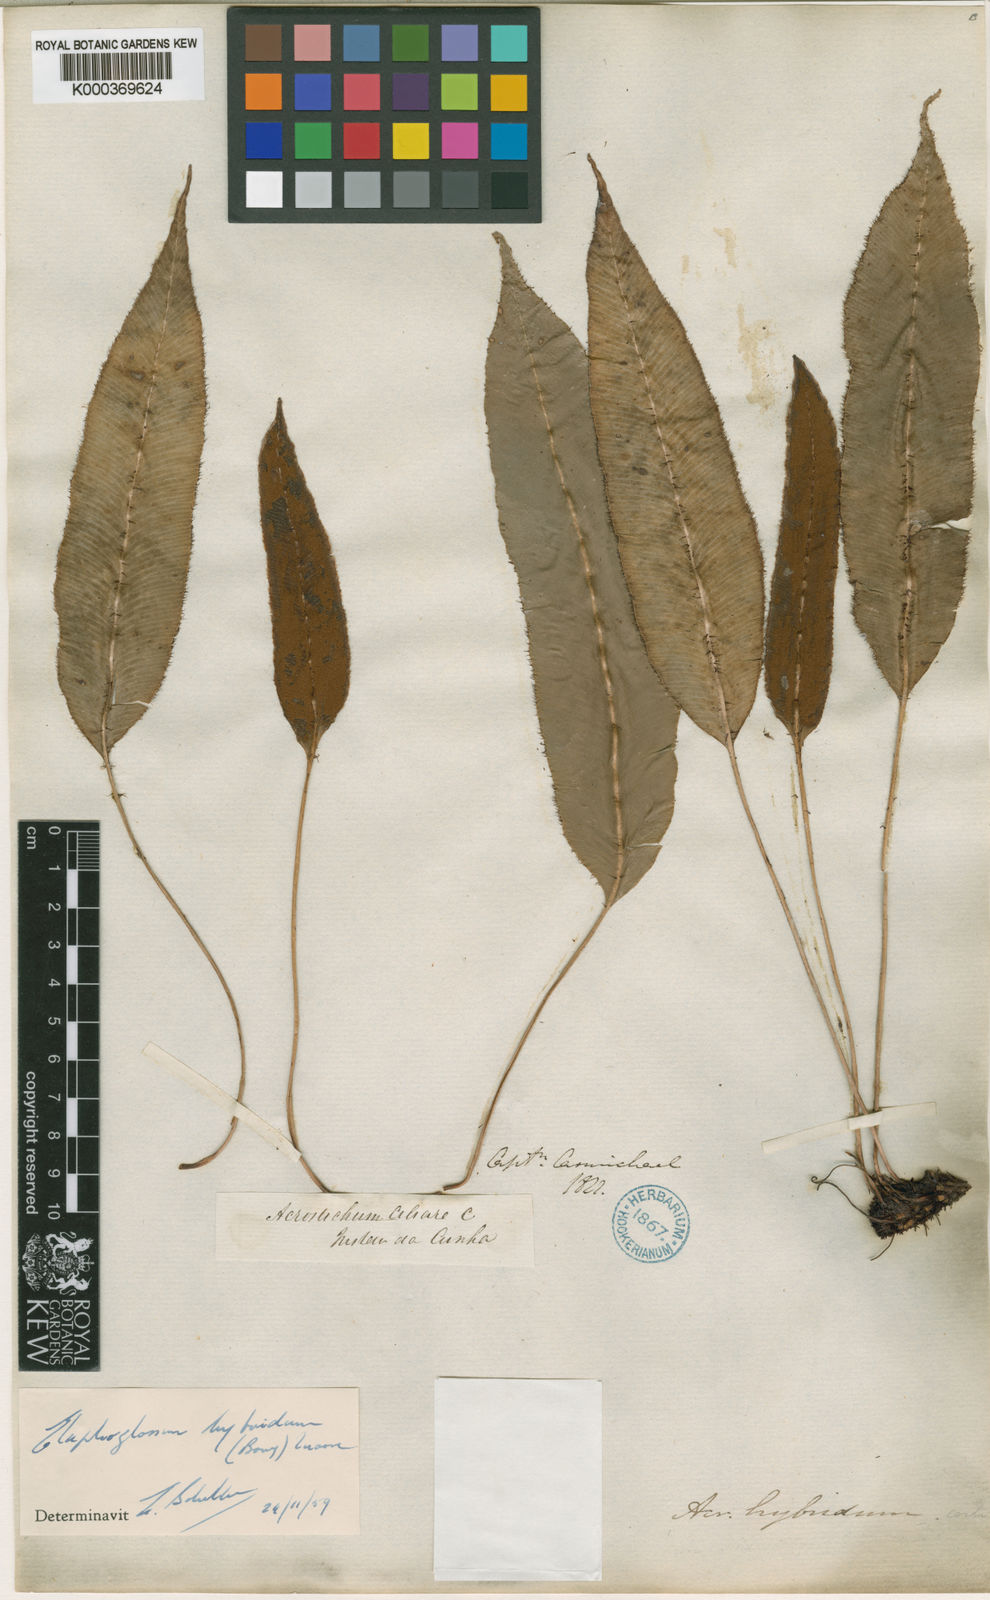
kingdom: Plantae
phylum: Tracheophyta
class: Polypodiopsida
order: Polypodiales
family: Dryopteridaceae
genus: Elaphoglossum
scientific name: Elaphoglossum hybridum
